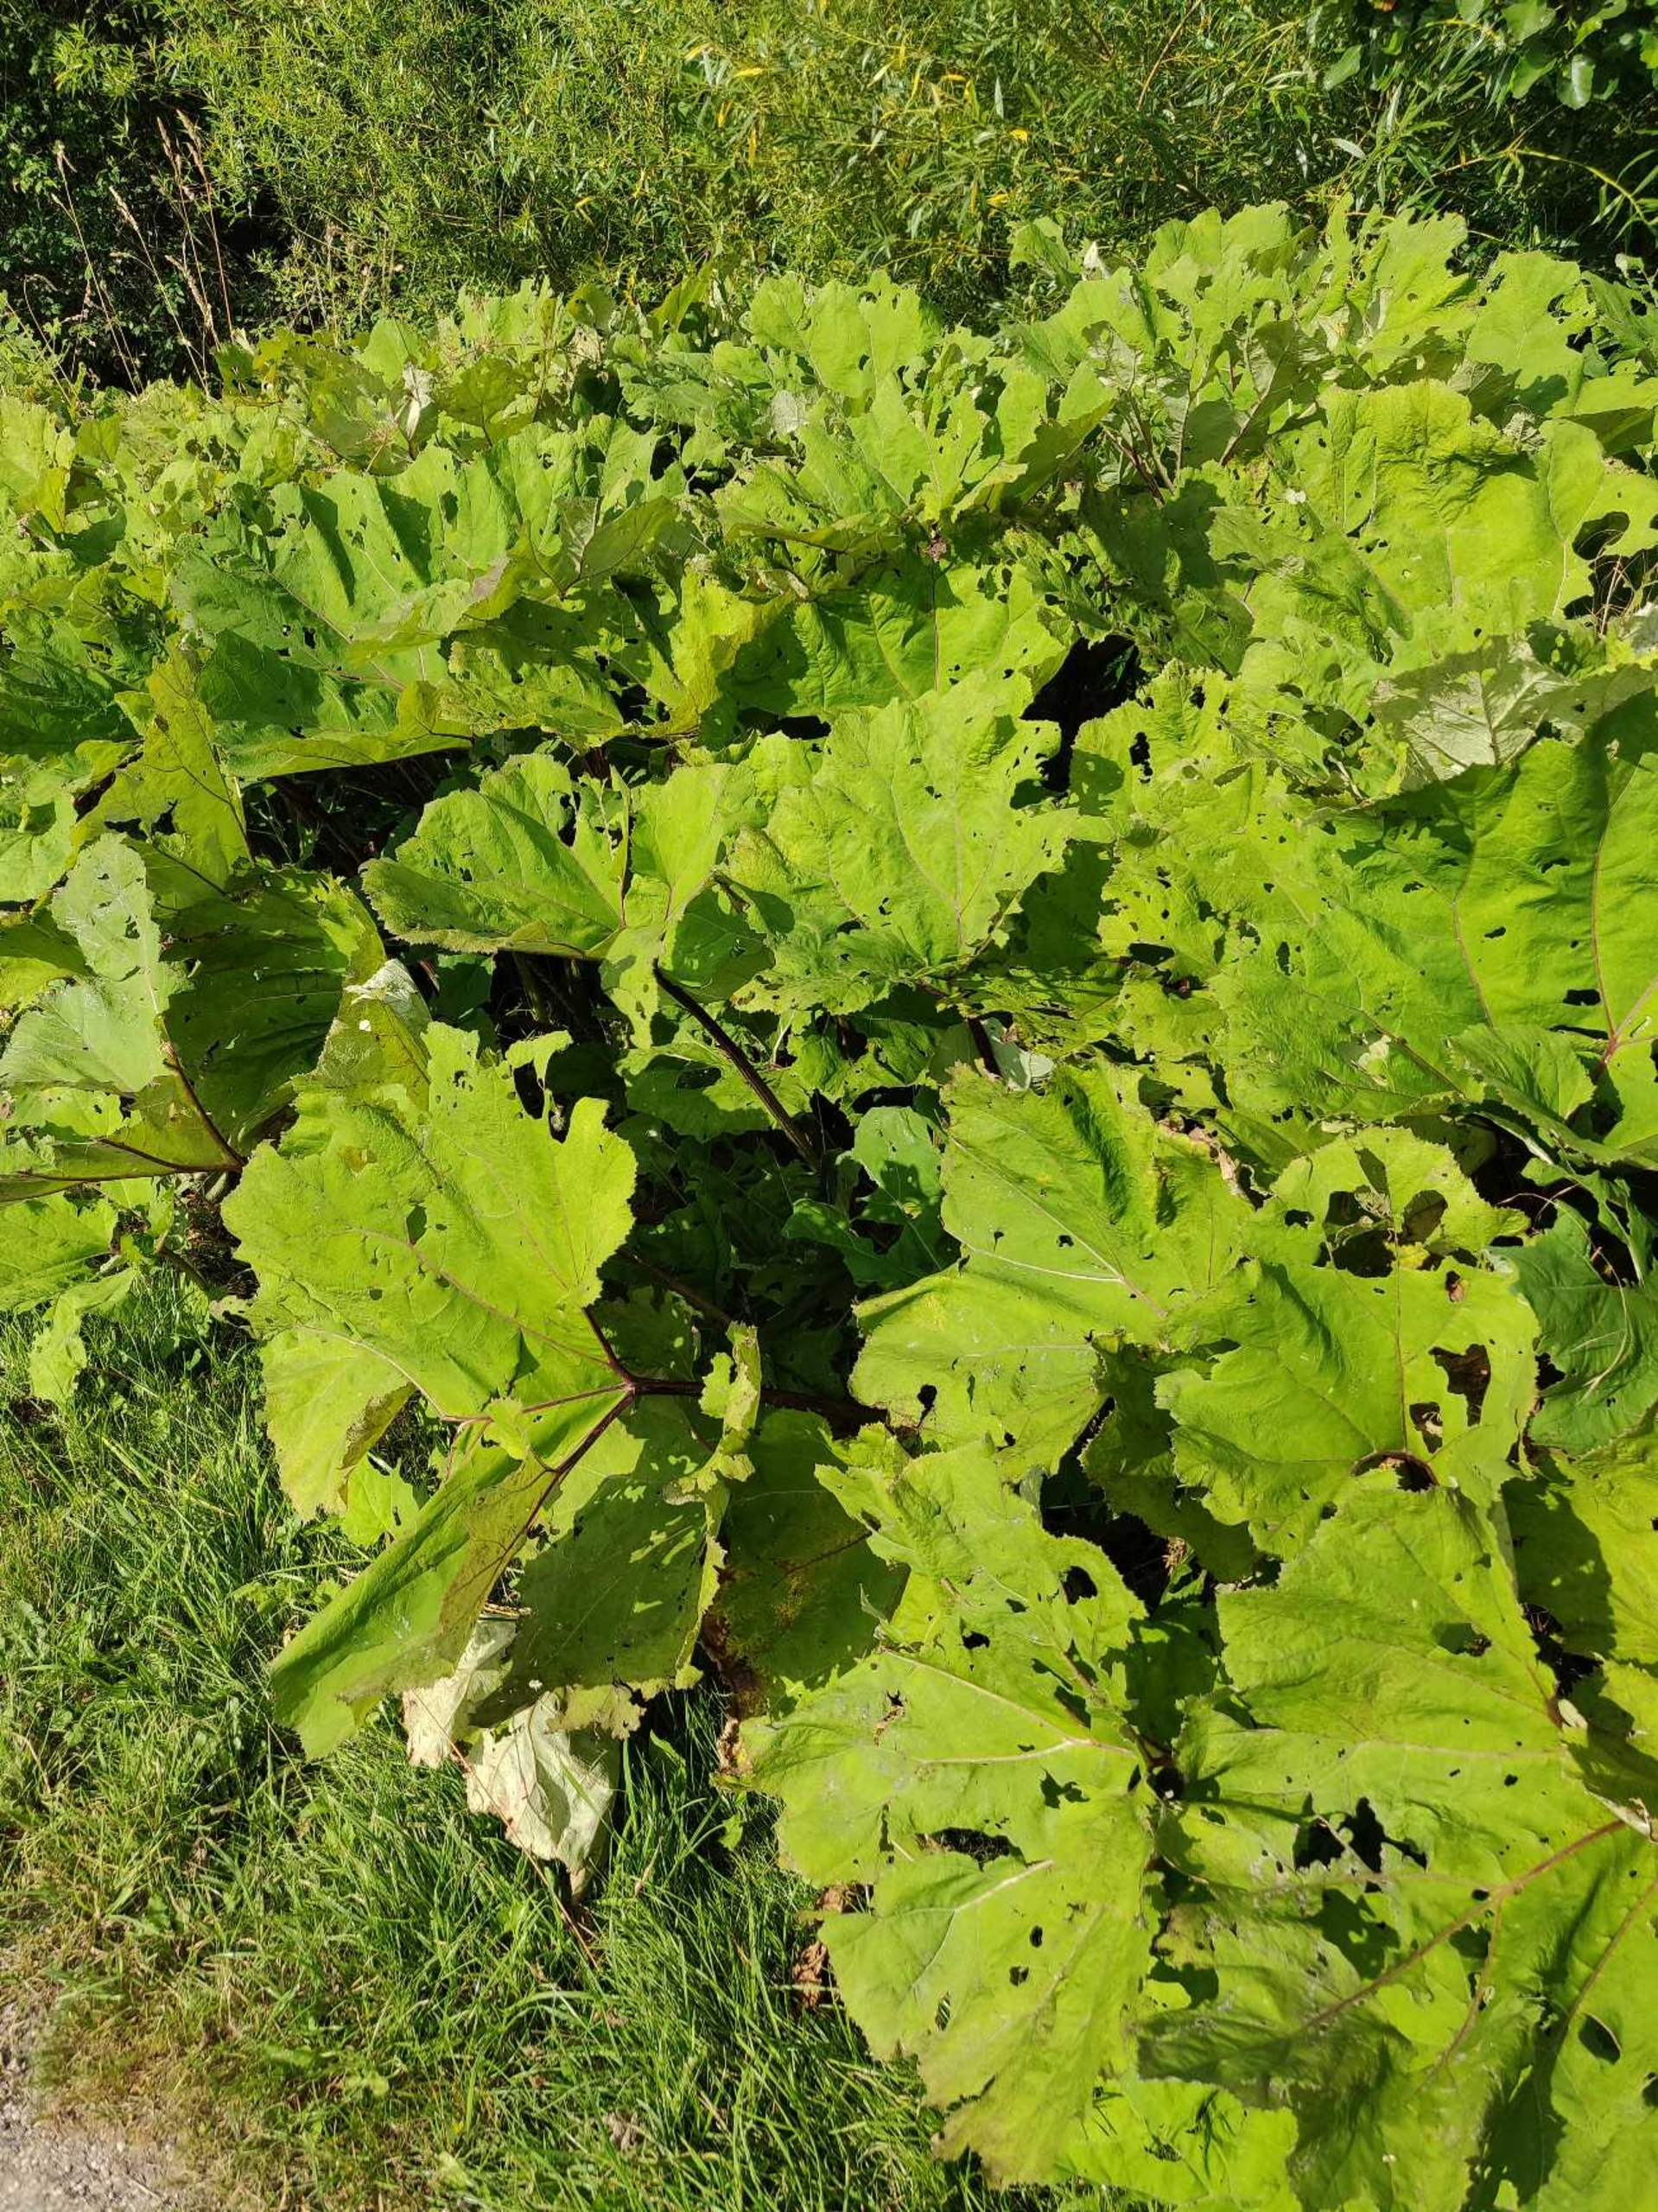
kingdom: Plantae
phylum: Tracheophyta
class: Magnoliopsida
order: Asterales
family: Asteraceae
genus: Petasites
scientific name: Petasites hybridus
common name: Rød hestehov
